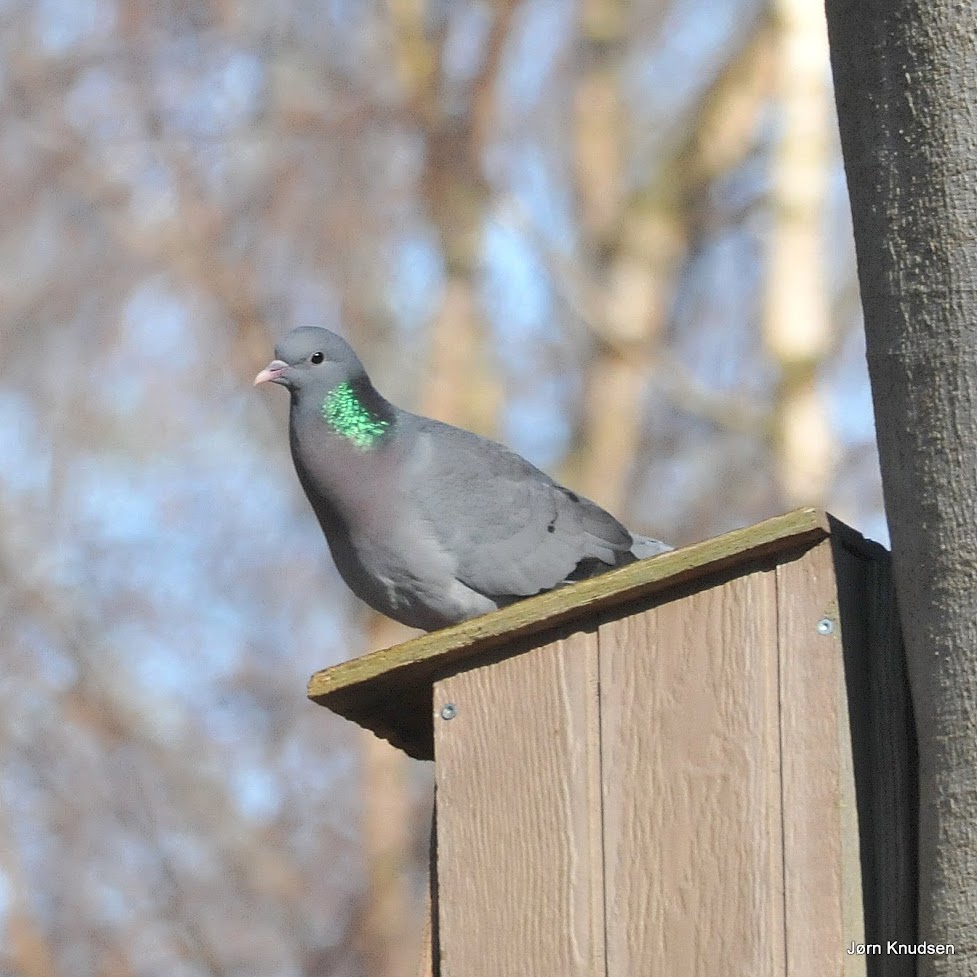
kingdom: Animalia
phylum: Chordata
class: Aves
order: Columbiformes
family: Columbidae
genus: Columba
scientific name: Columba oenas
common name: Huldue
